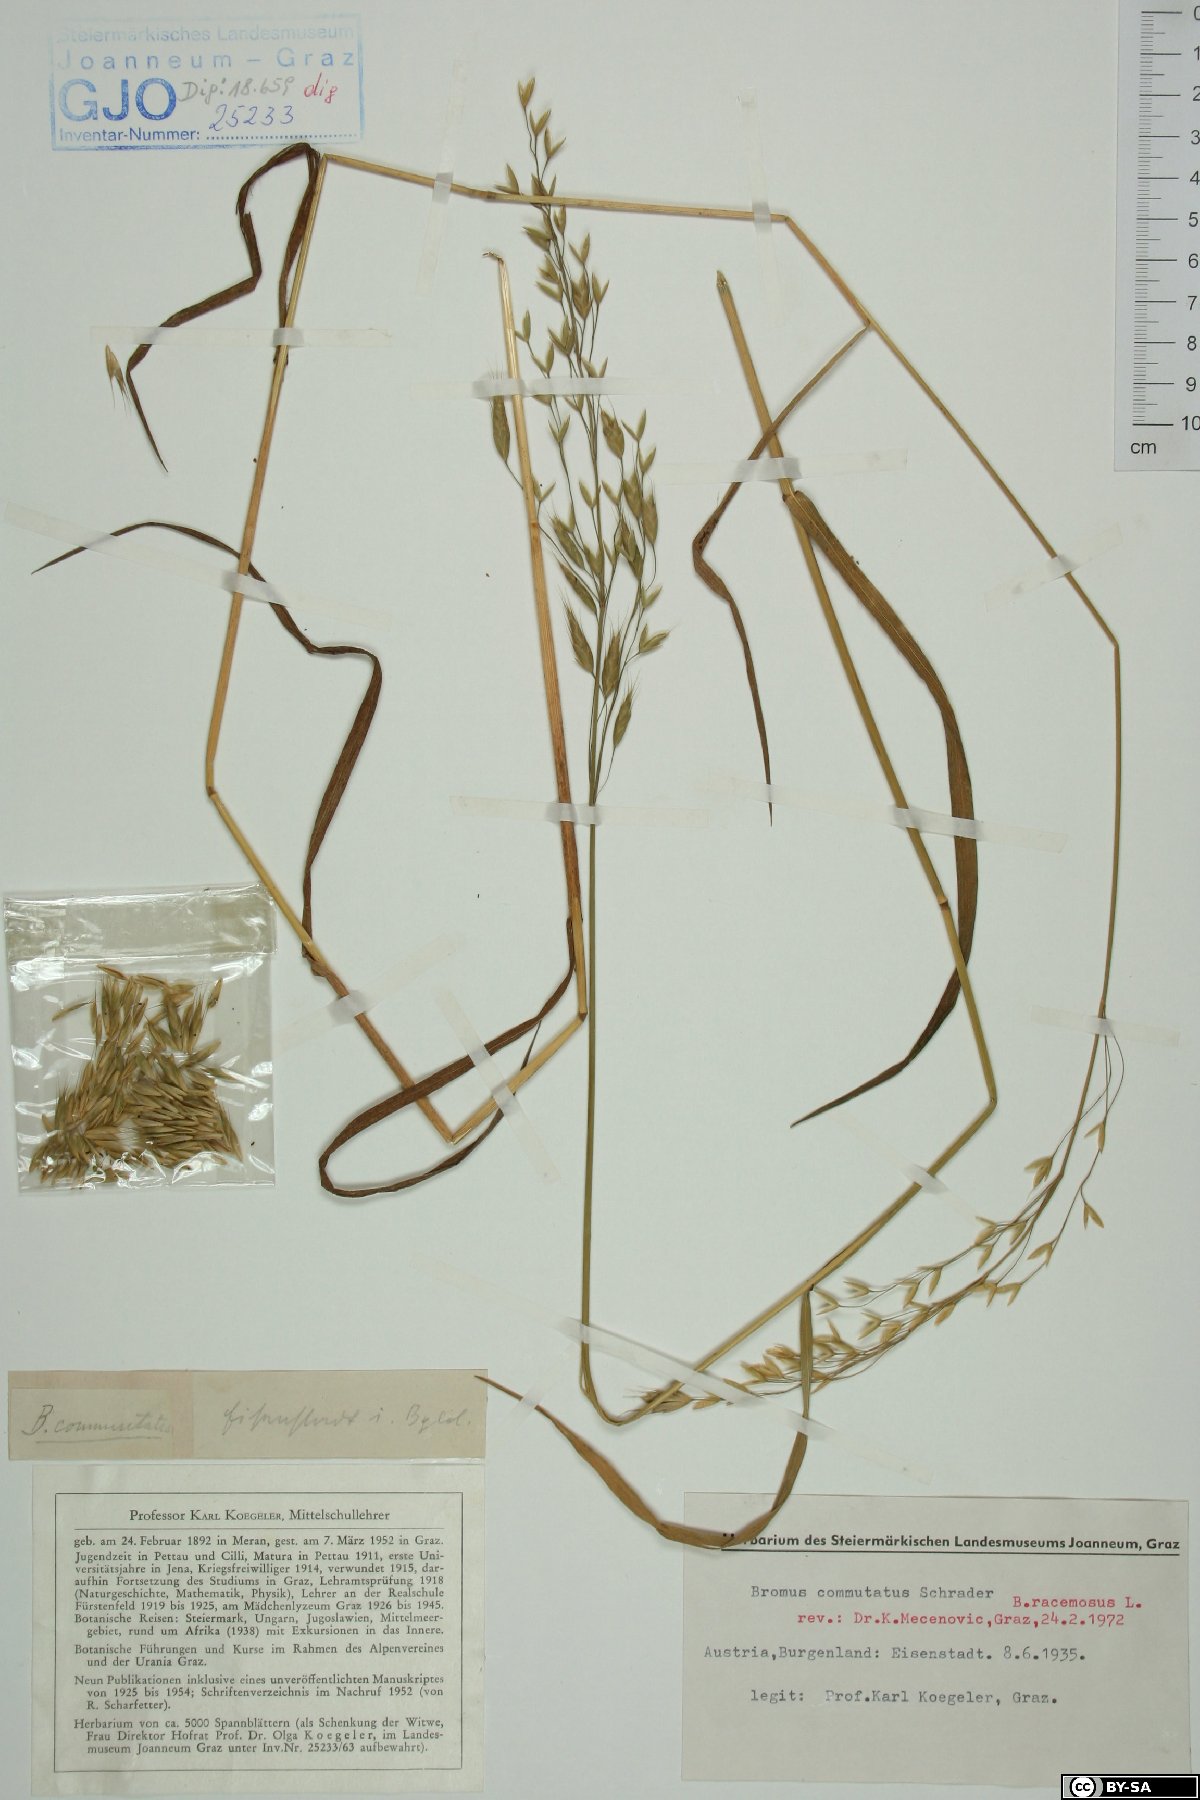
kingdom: Plantae
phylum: Tracheophyta
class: Liliopsida
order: Poales
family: Poaceae
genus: Bromus
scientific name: Bromus racemosus
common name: Bald brome
